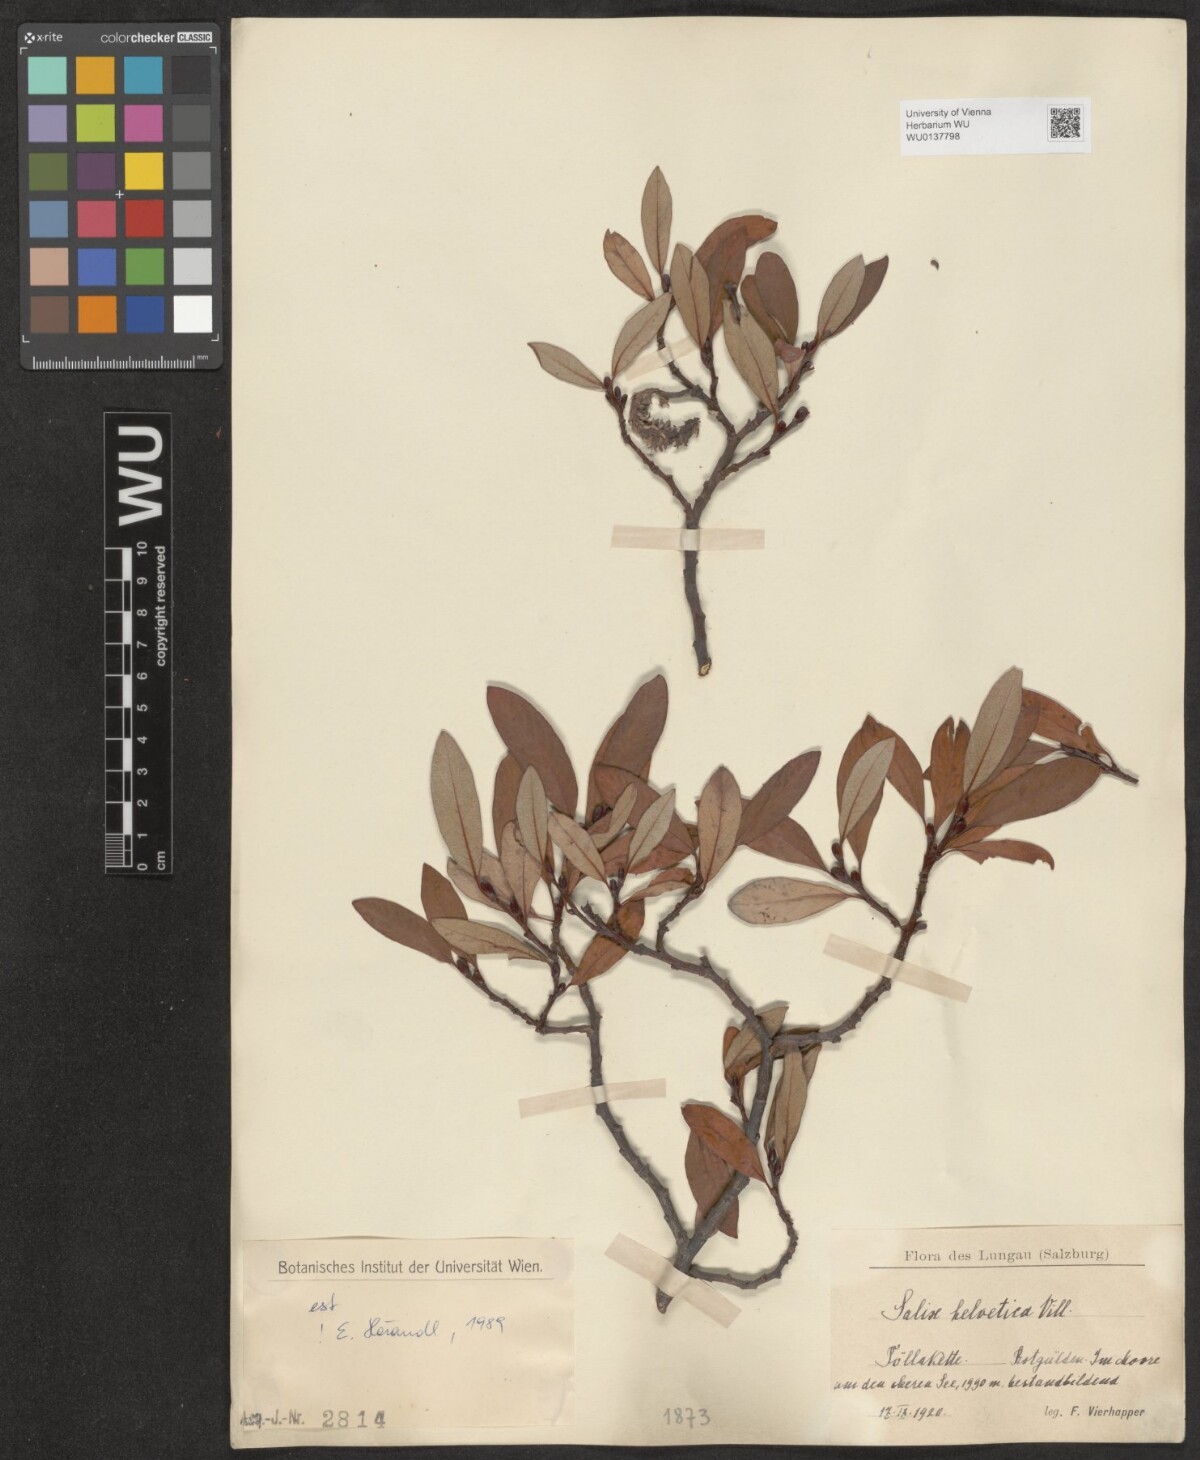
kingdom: Plantae
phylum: Tracheophyta
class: Magnoliopsida
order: Malpighiales
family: Salicaceae
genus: Salix
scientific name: Salix helvetica
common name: Swiss willow
